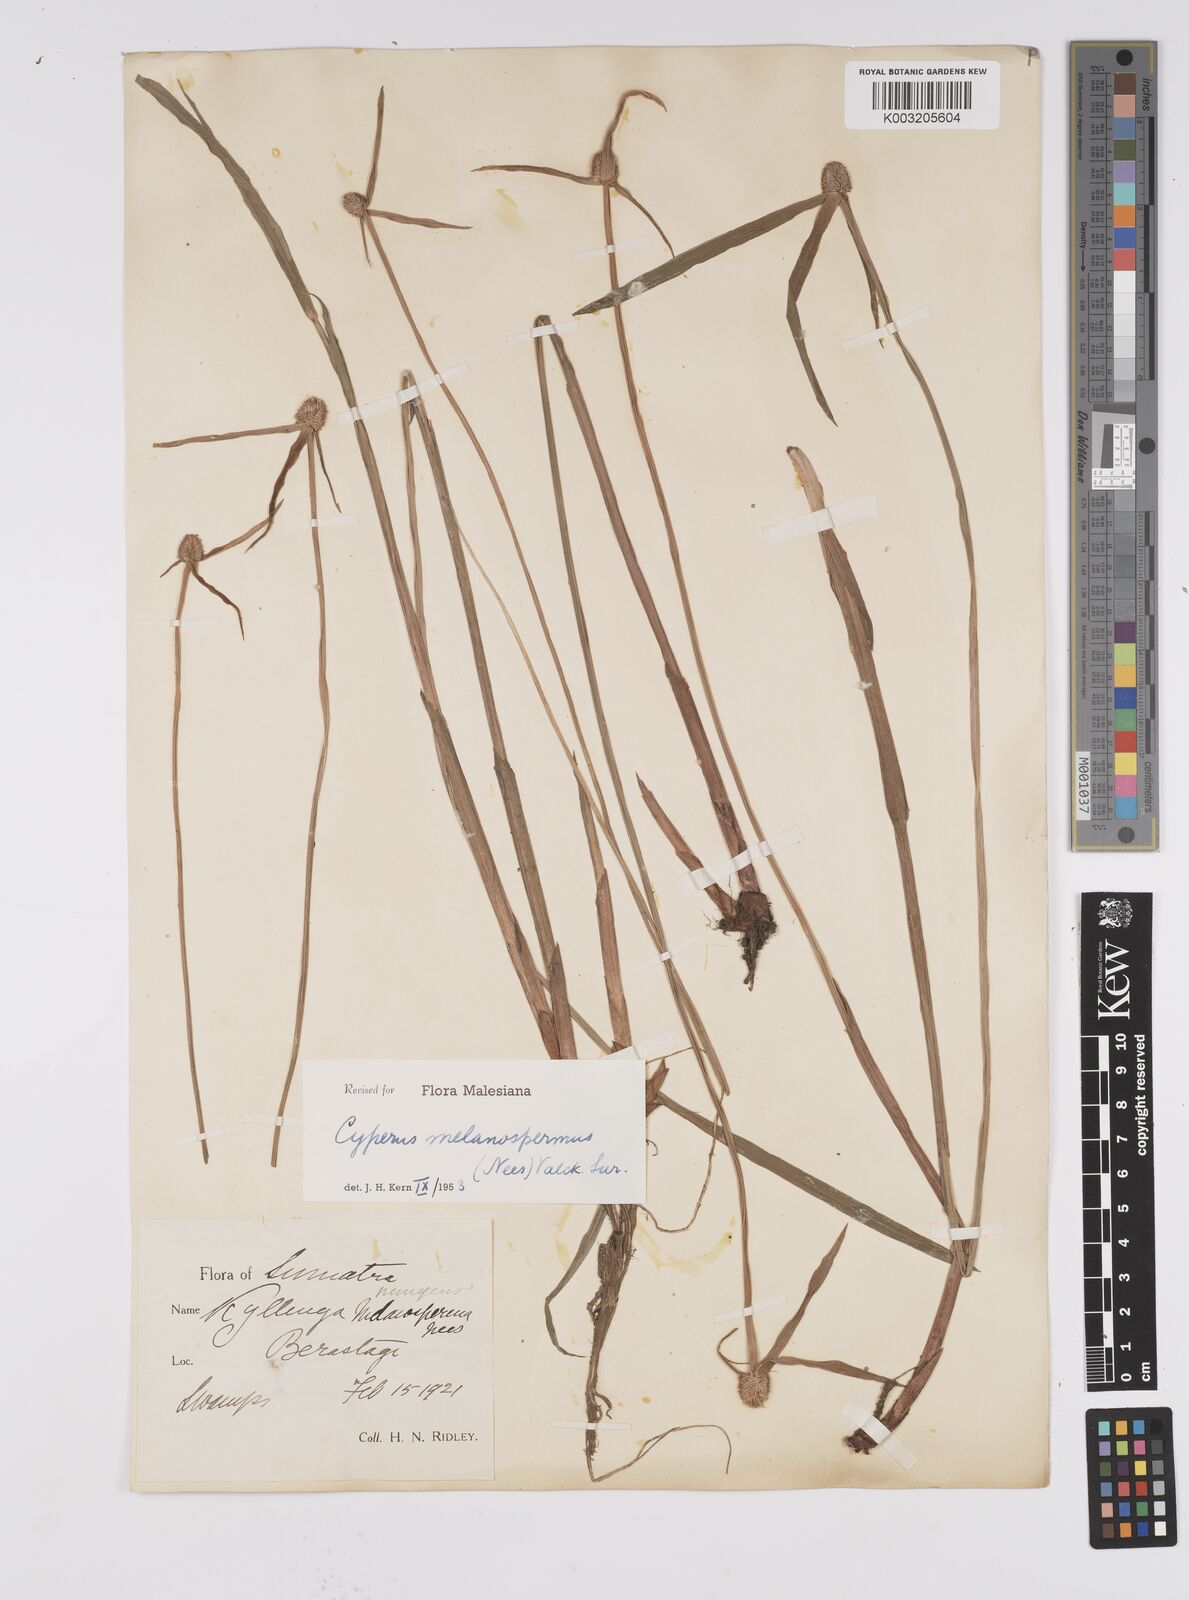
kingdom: Plantae
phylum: Tracheophyta
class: Liliopsida
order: Poales
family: Cyperaceae
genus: Cyperus
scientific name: Cyperus melanospermus
